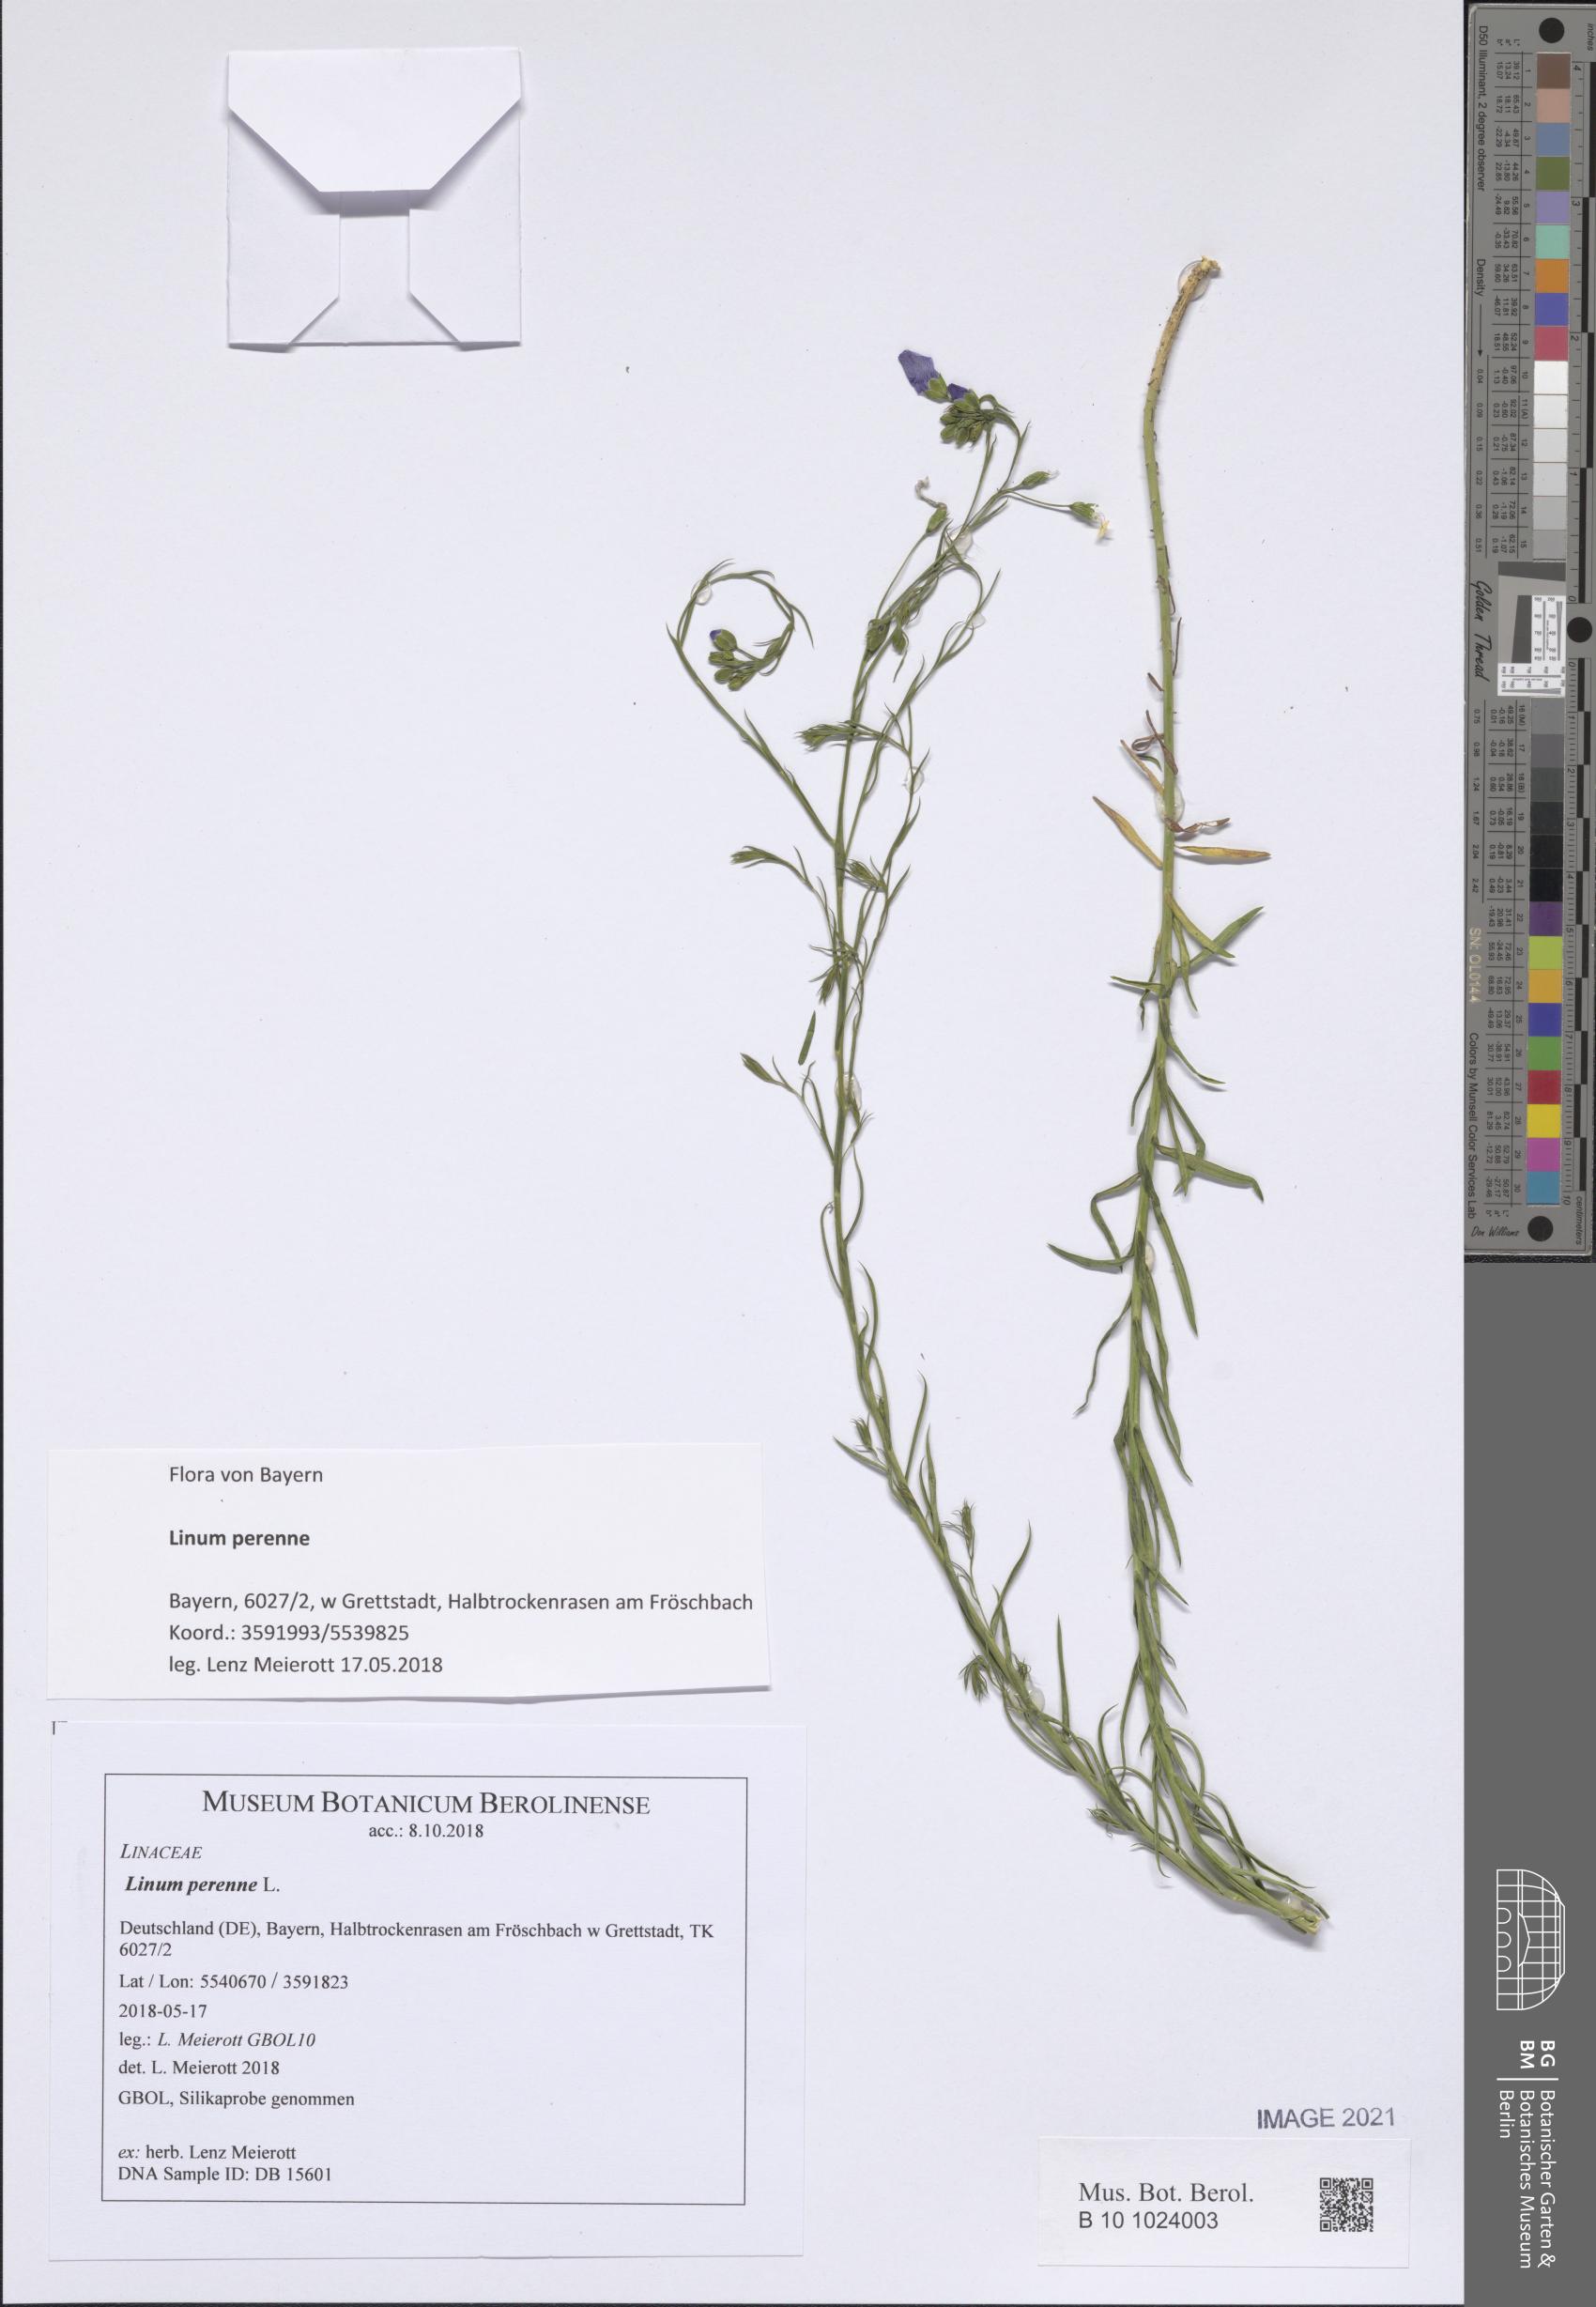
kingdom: Plantae
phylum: Tracheophyta
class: Magnoliopsida
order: Malpighiales
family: Linaceae
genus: Linum
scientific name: Linum perenne
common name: Blue flax
